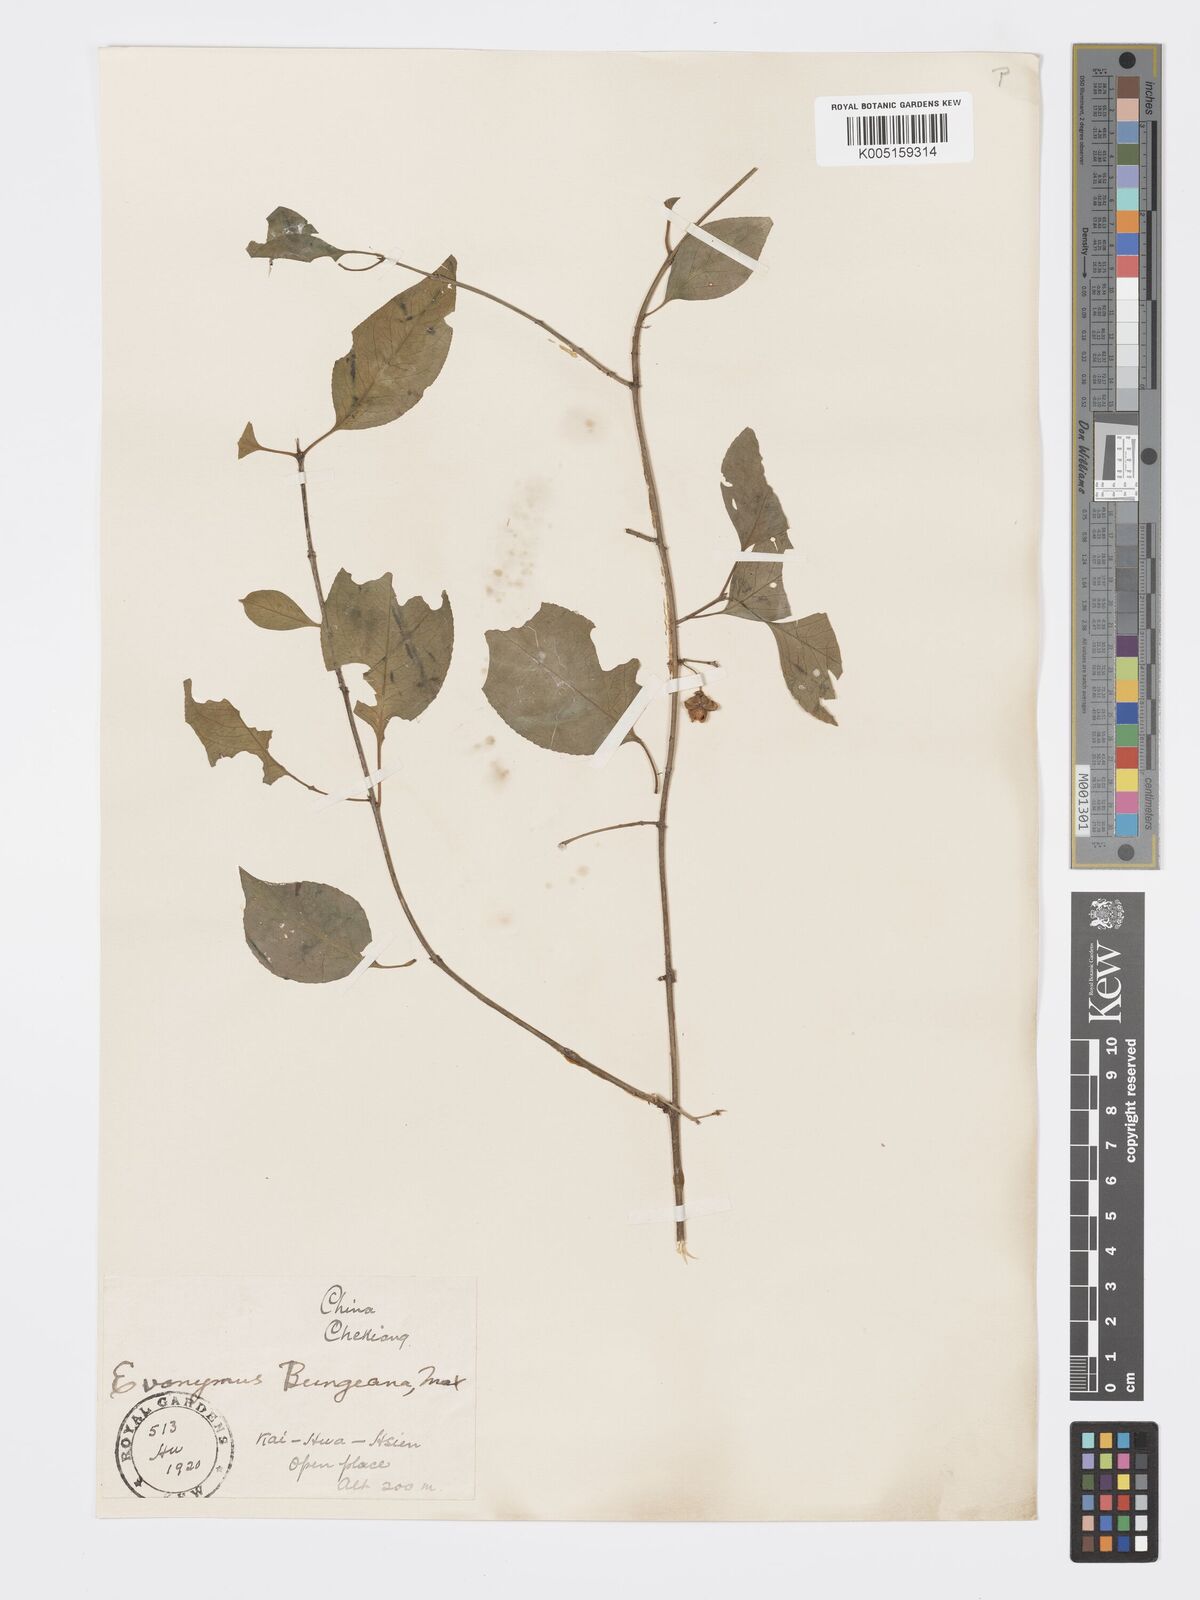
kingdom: Plantae
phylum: Tracheophyta
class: Magnoliopsida
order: Celastrales
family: Celastraceae
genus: Euonymus
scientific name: Euonymus maackii
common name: Hamilton's spindletree
